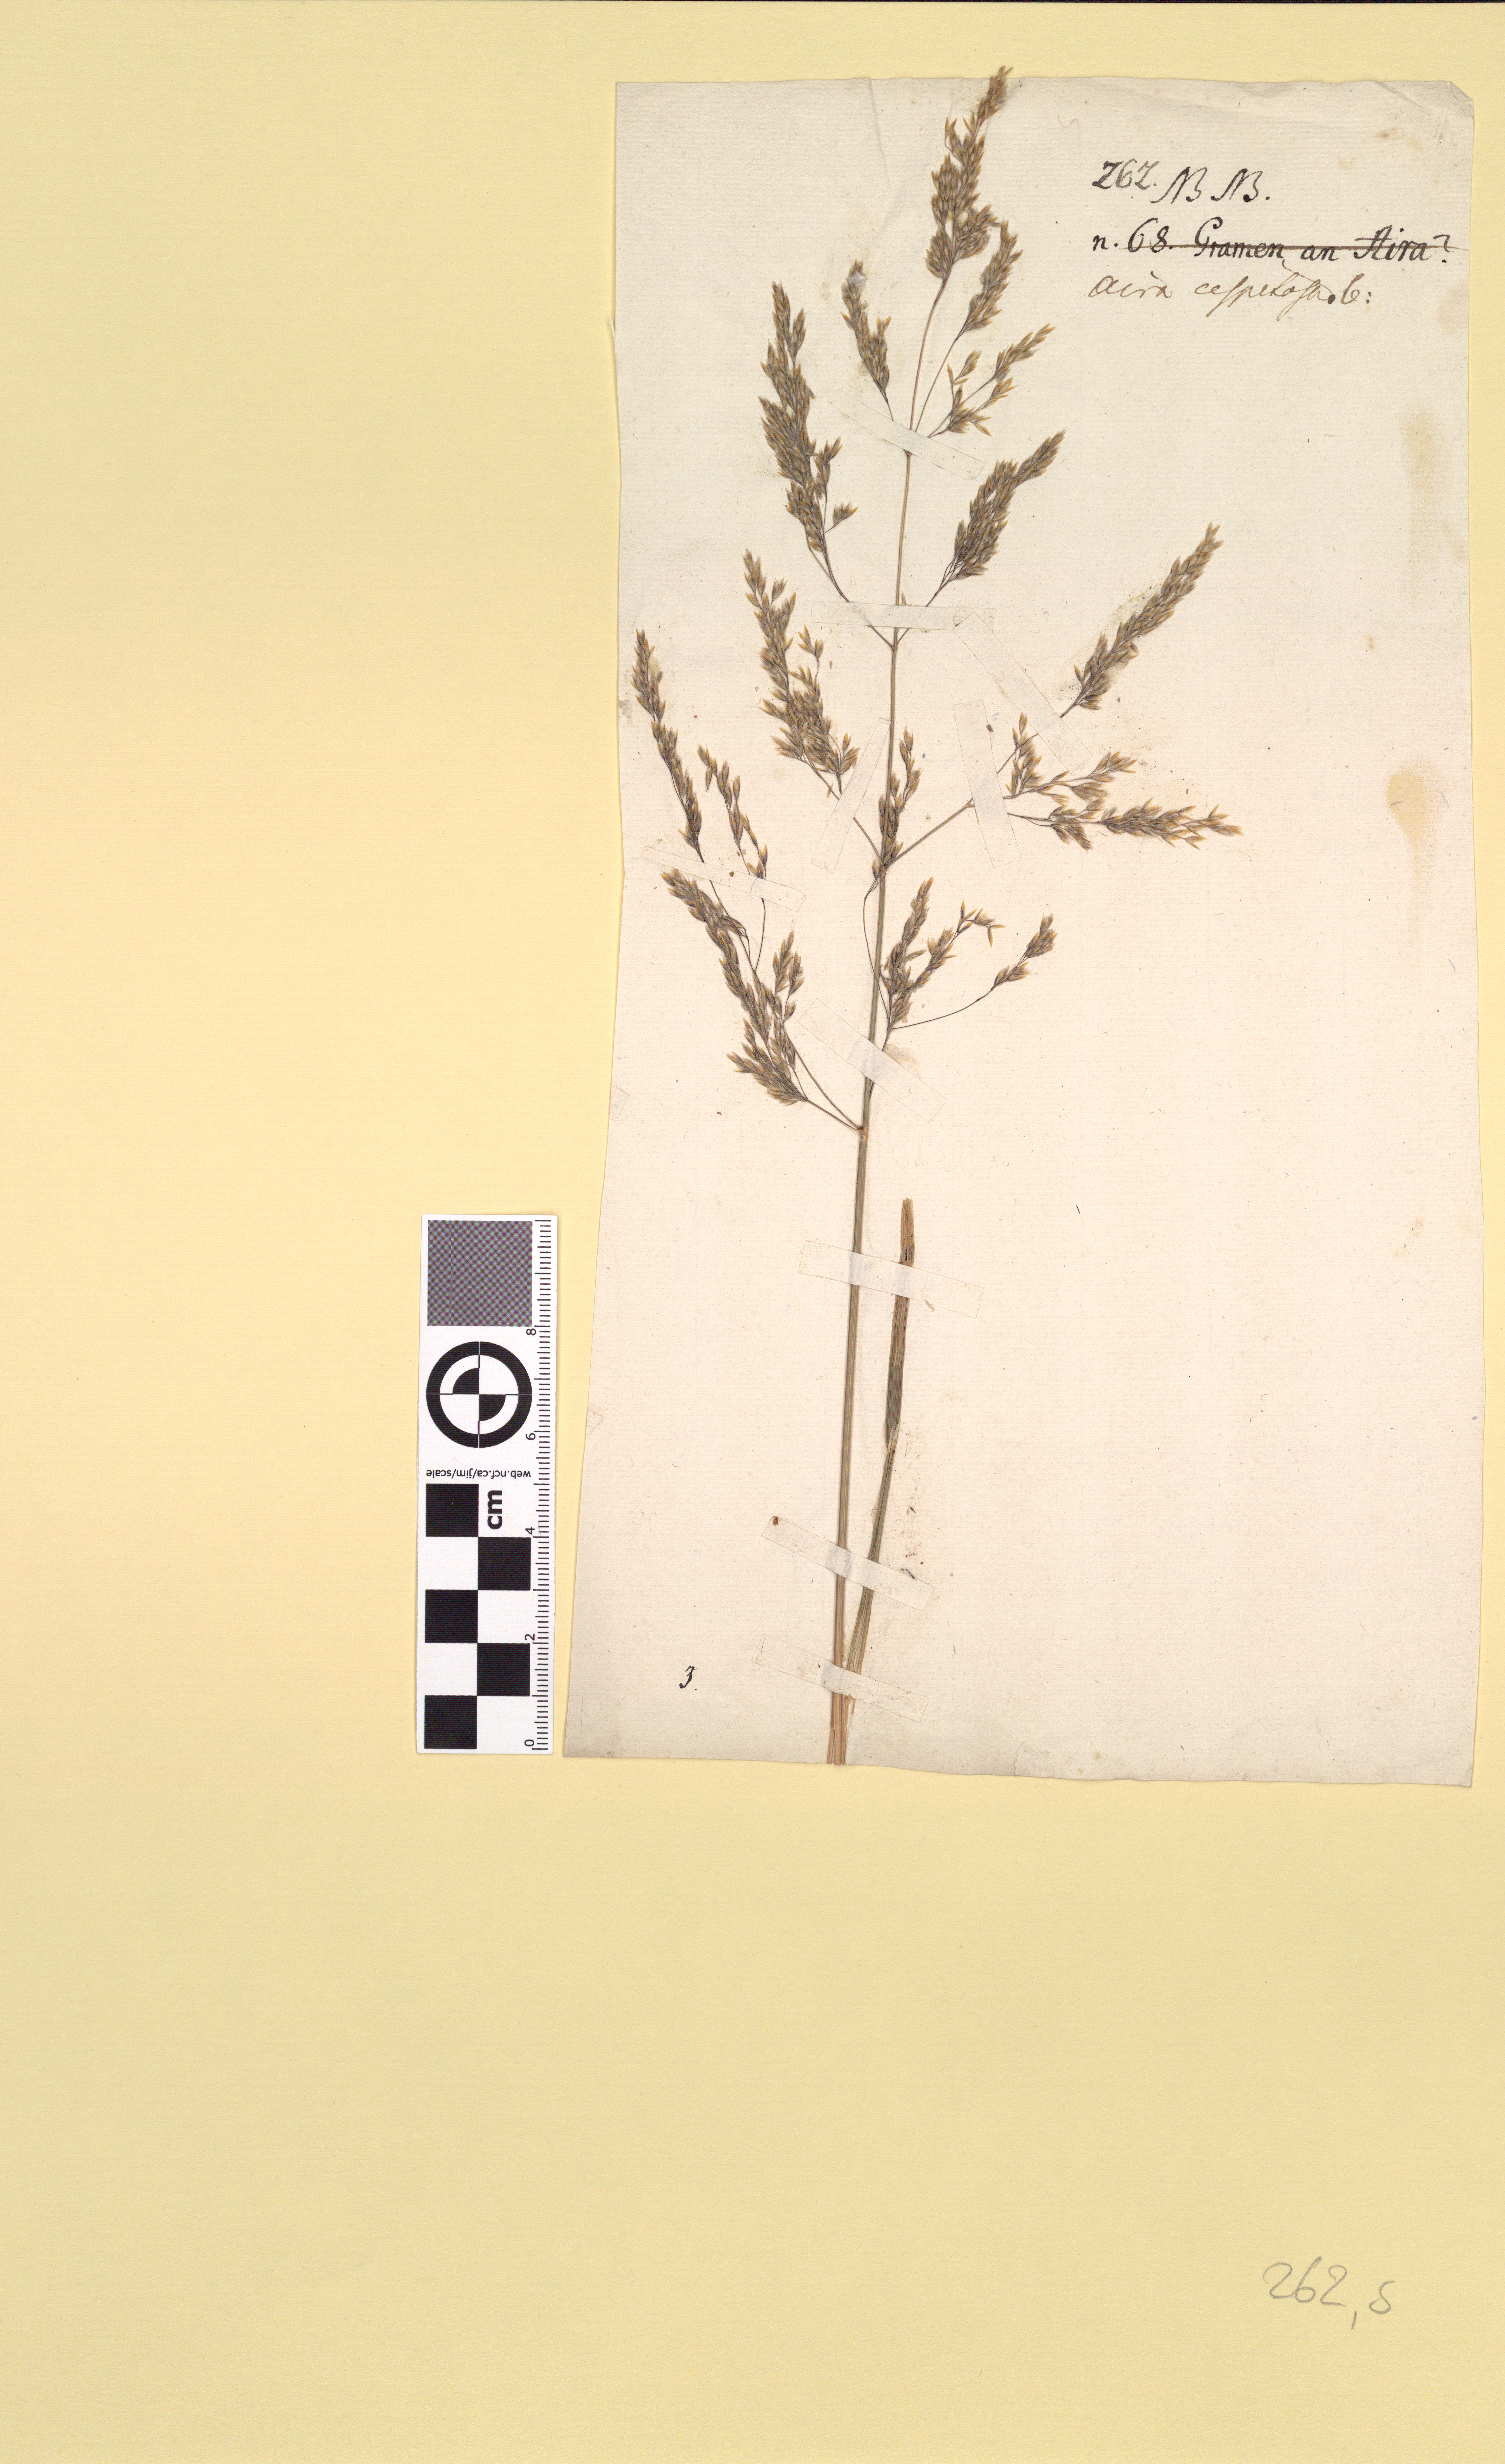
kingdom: Plantae
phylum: Tracheophyta
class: Liliopsida
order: Poales
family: Poaceae
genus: Deschampsia
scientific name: Deschampsia cespitosa
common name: Tufted hair-grass
